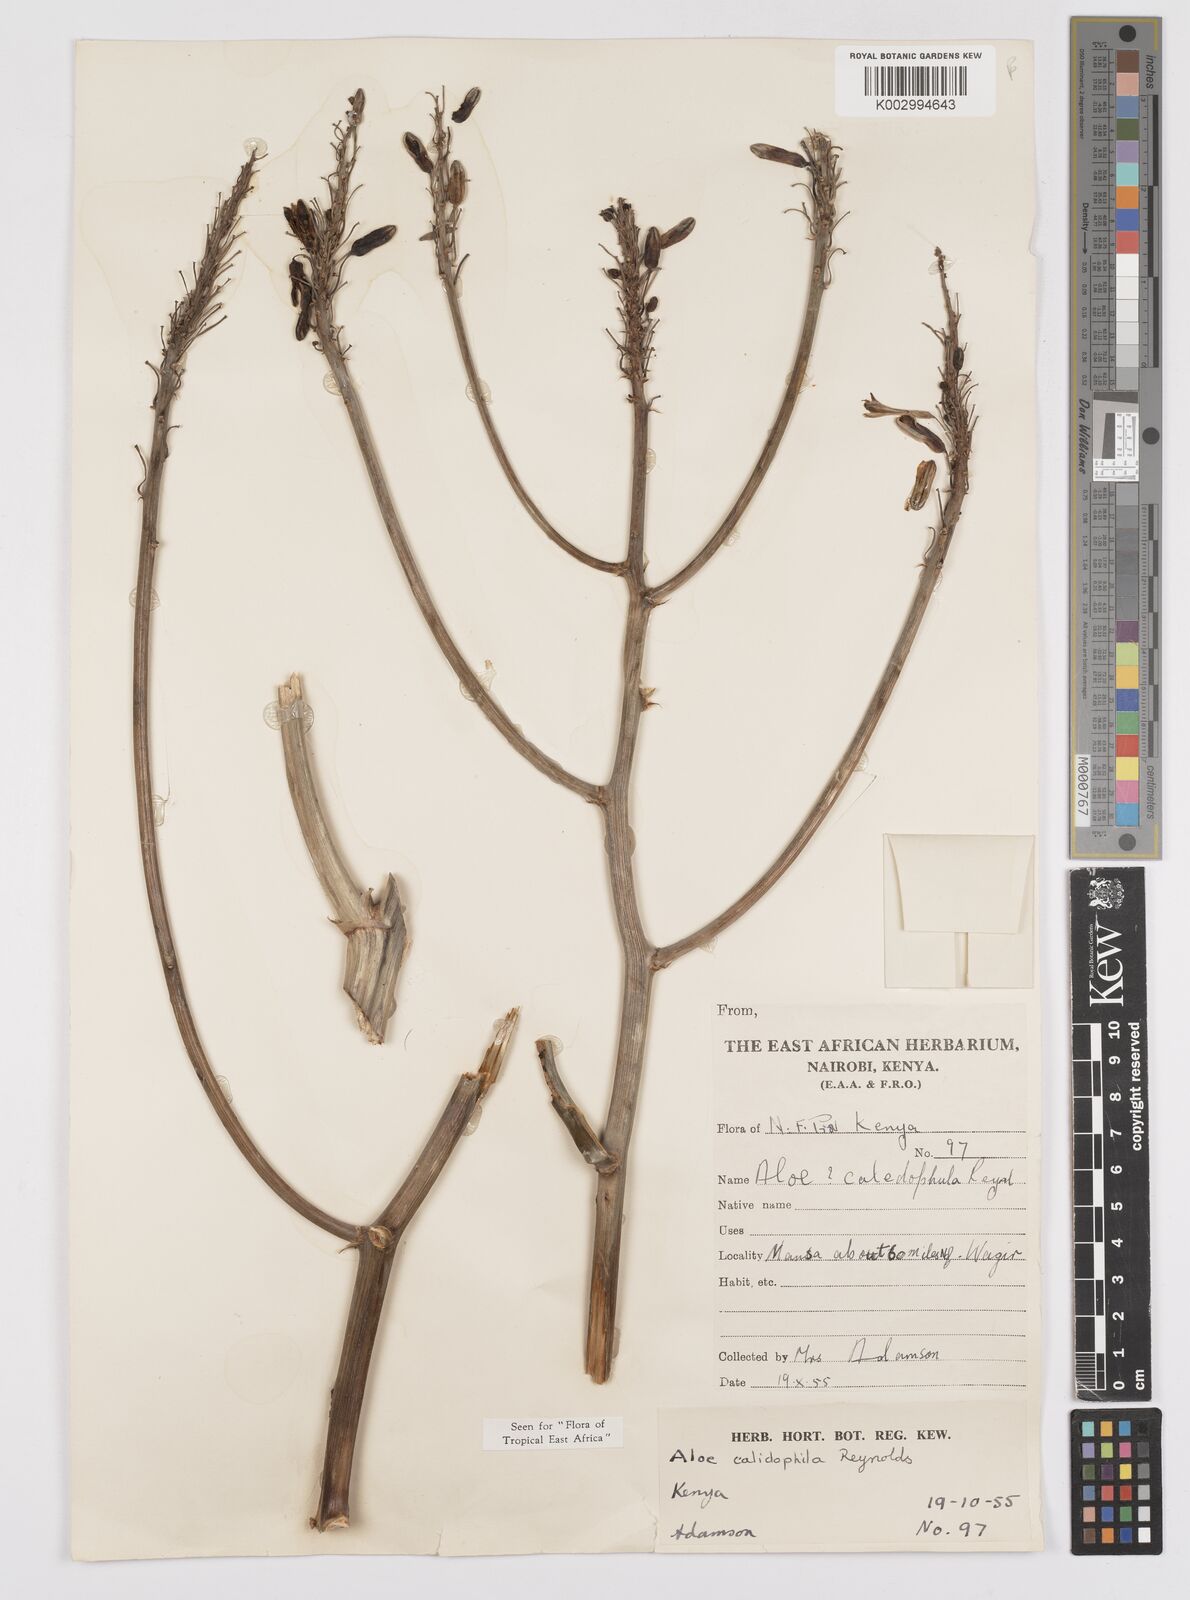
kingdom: Plantae
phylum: Tracheophyta
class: Liliopsida
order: Asparagales
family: Asphodelaceae
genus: Aloe
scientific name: Aloe calidophila
